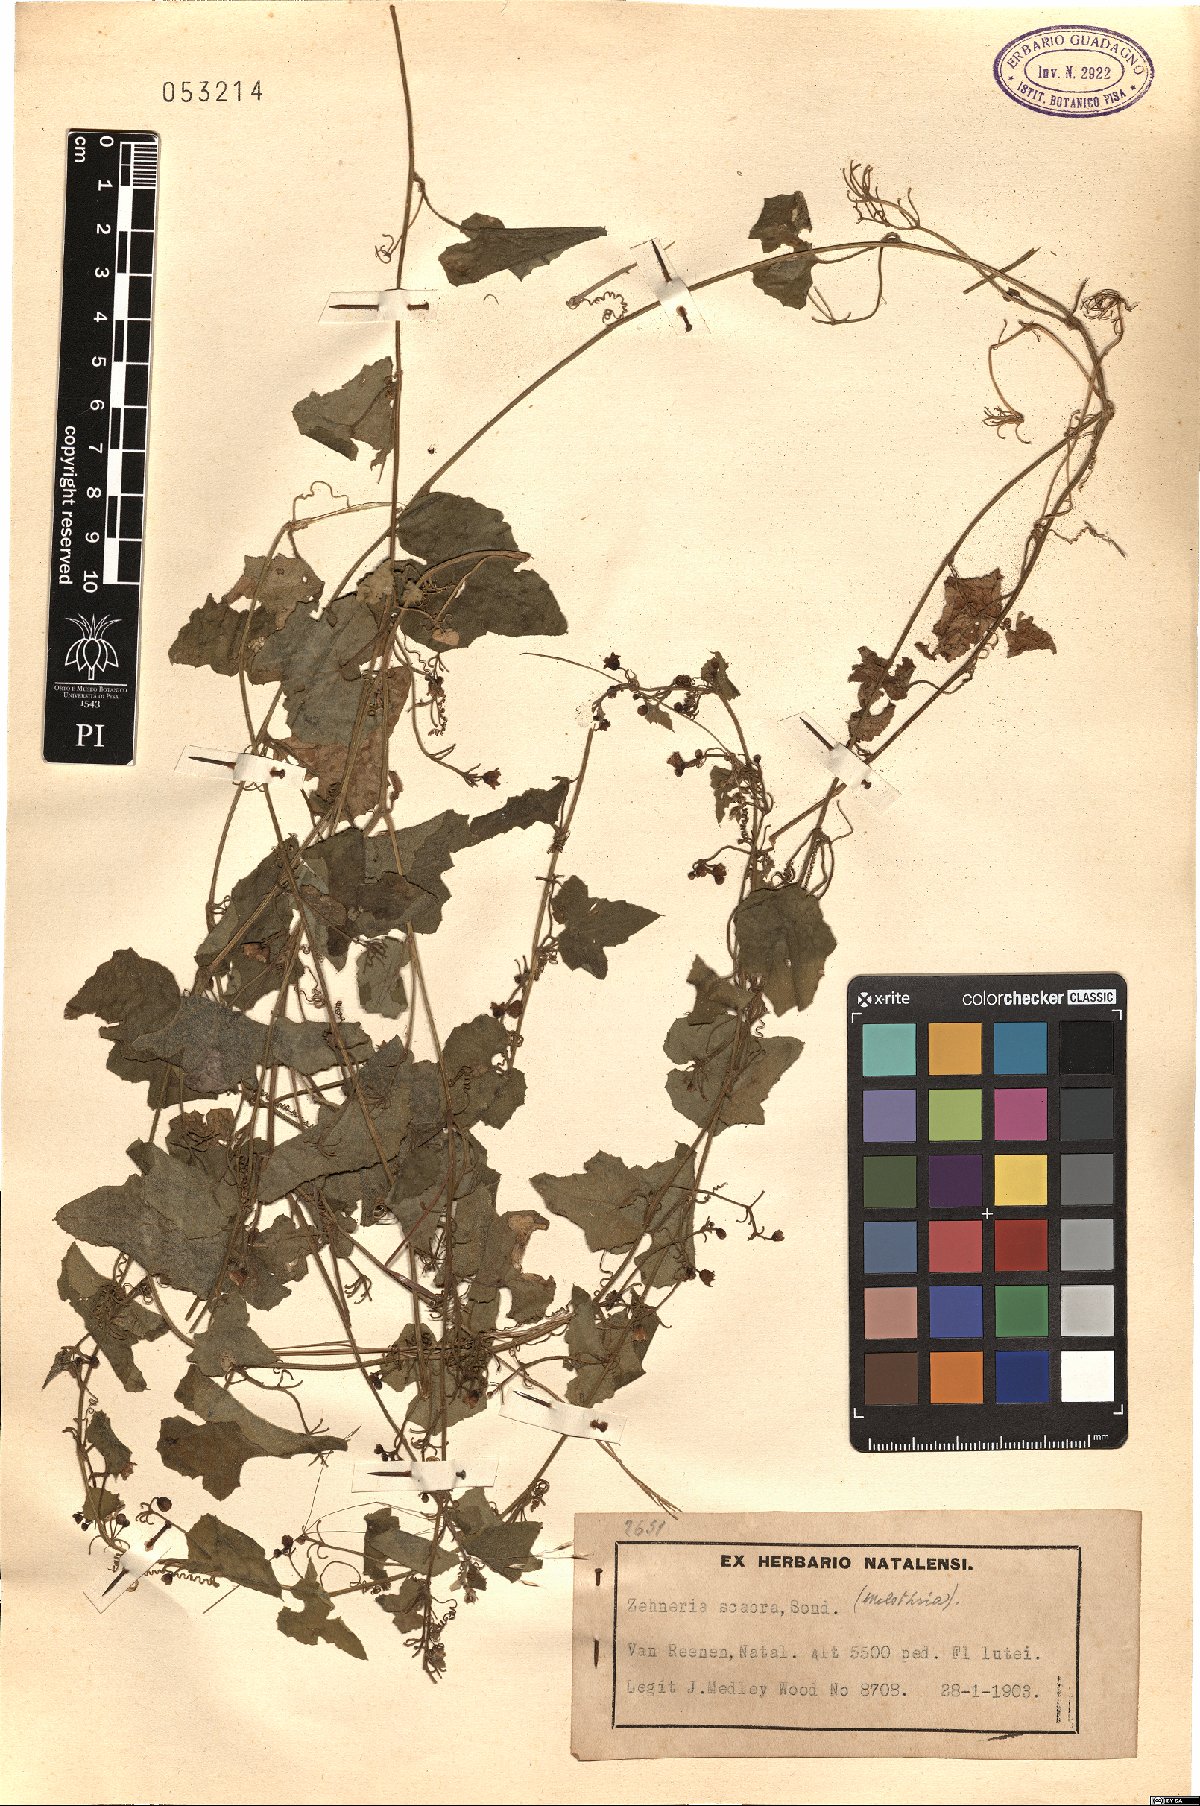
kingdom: Plantae
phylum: Tracheophyta
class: Magnoliopsida
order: Cucurbitales
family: Cucurbitaceae
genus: Zehneria
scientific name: Zehneria scabra
